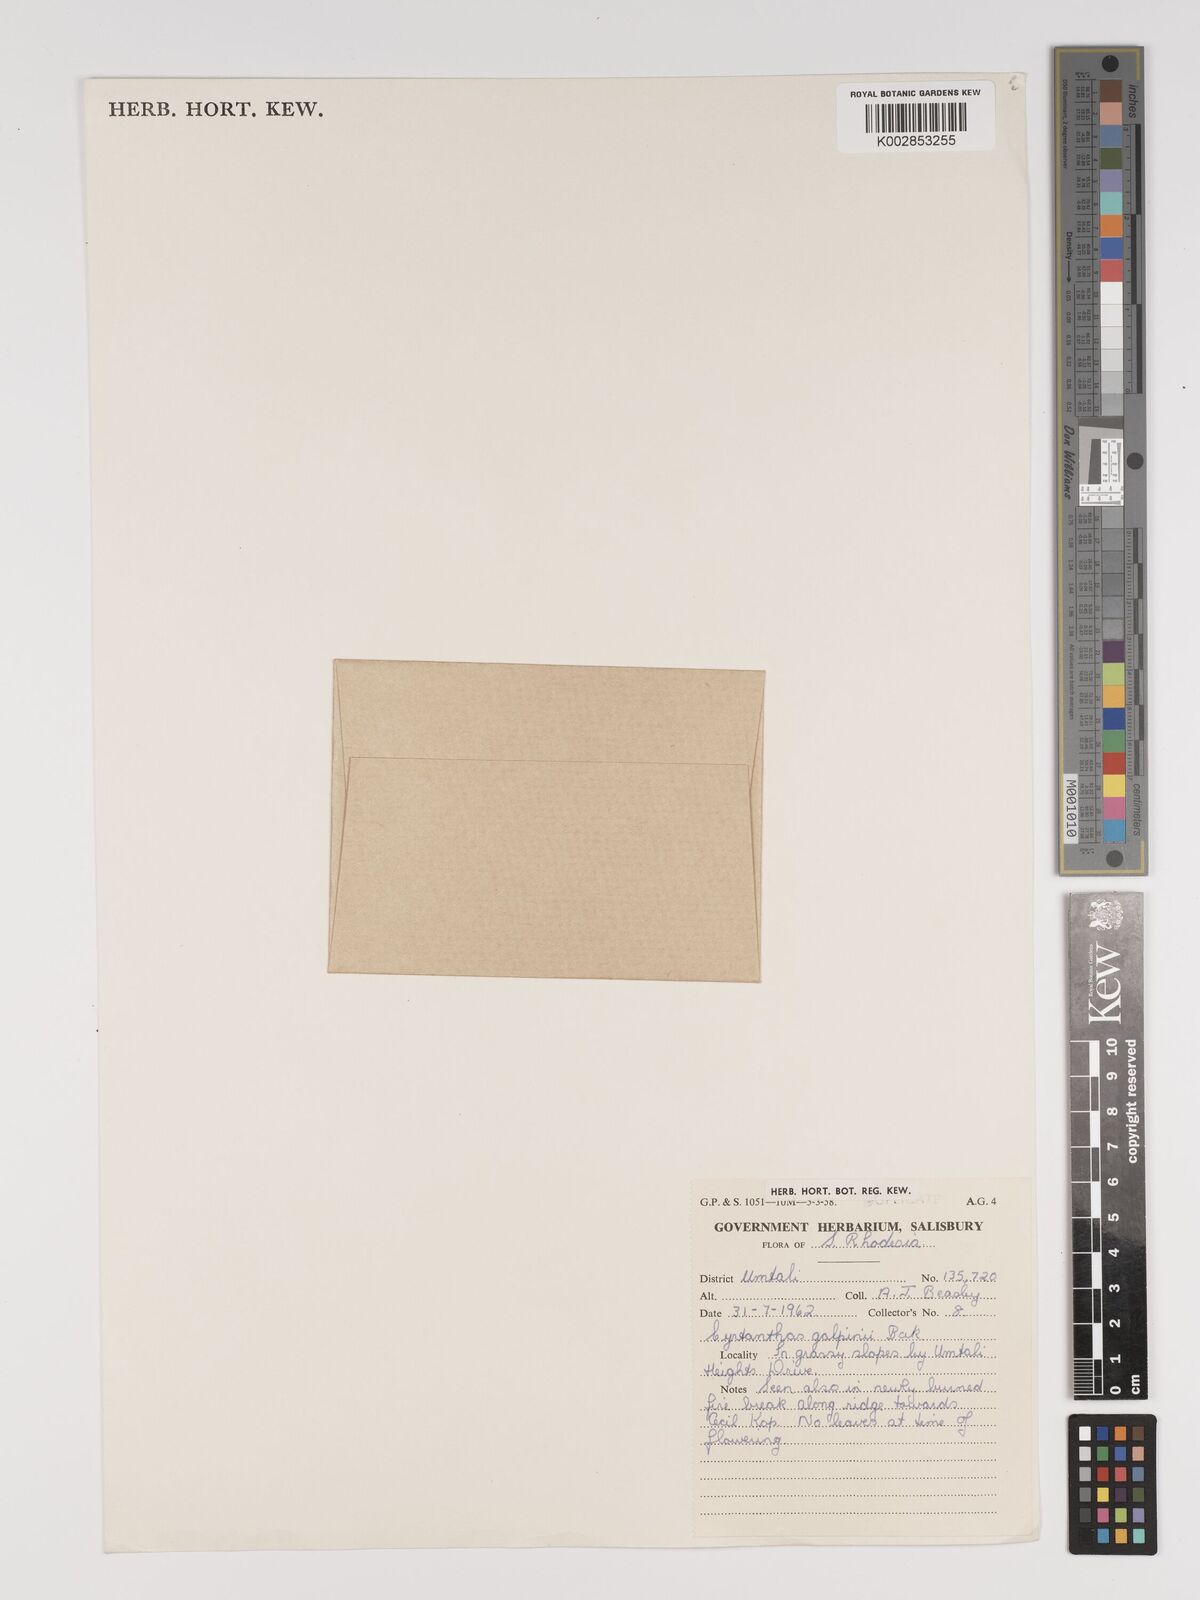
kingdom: Plantae
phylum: Tracheophyta
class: Liliopsida
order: Asparagales
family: Amaryllidaceae
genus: Cyrtanthus
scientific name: Cyrtanthus galpinii
